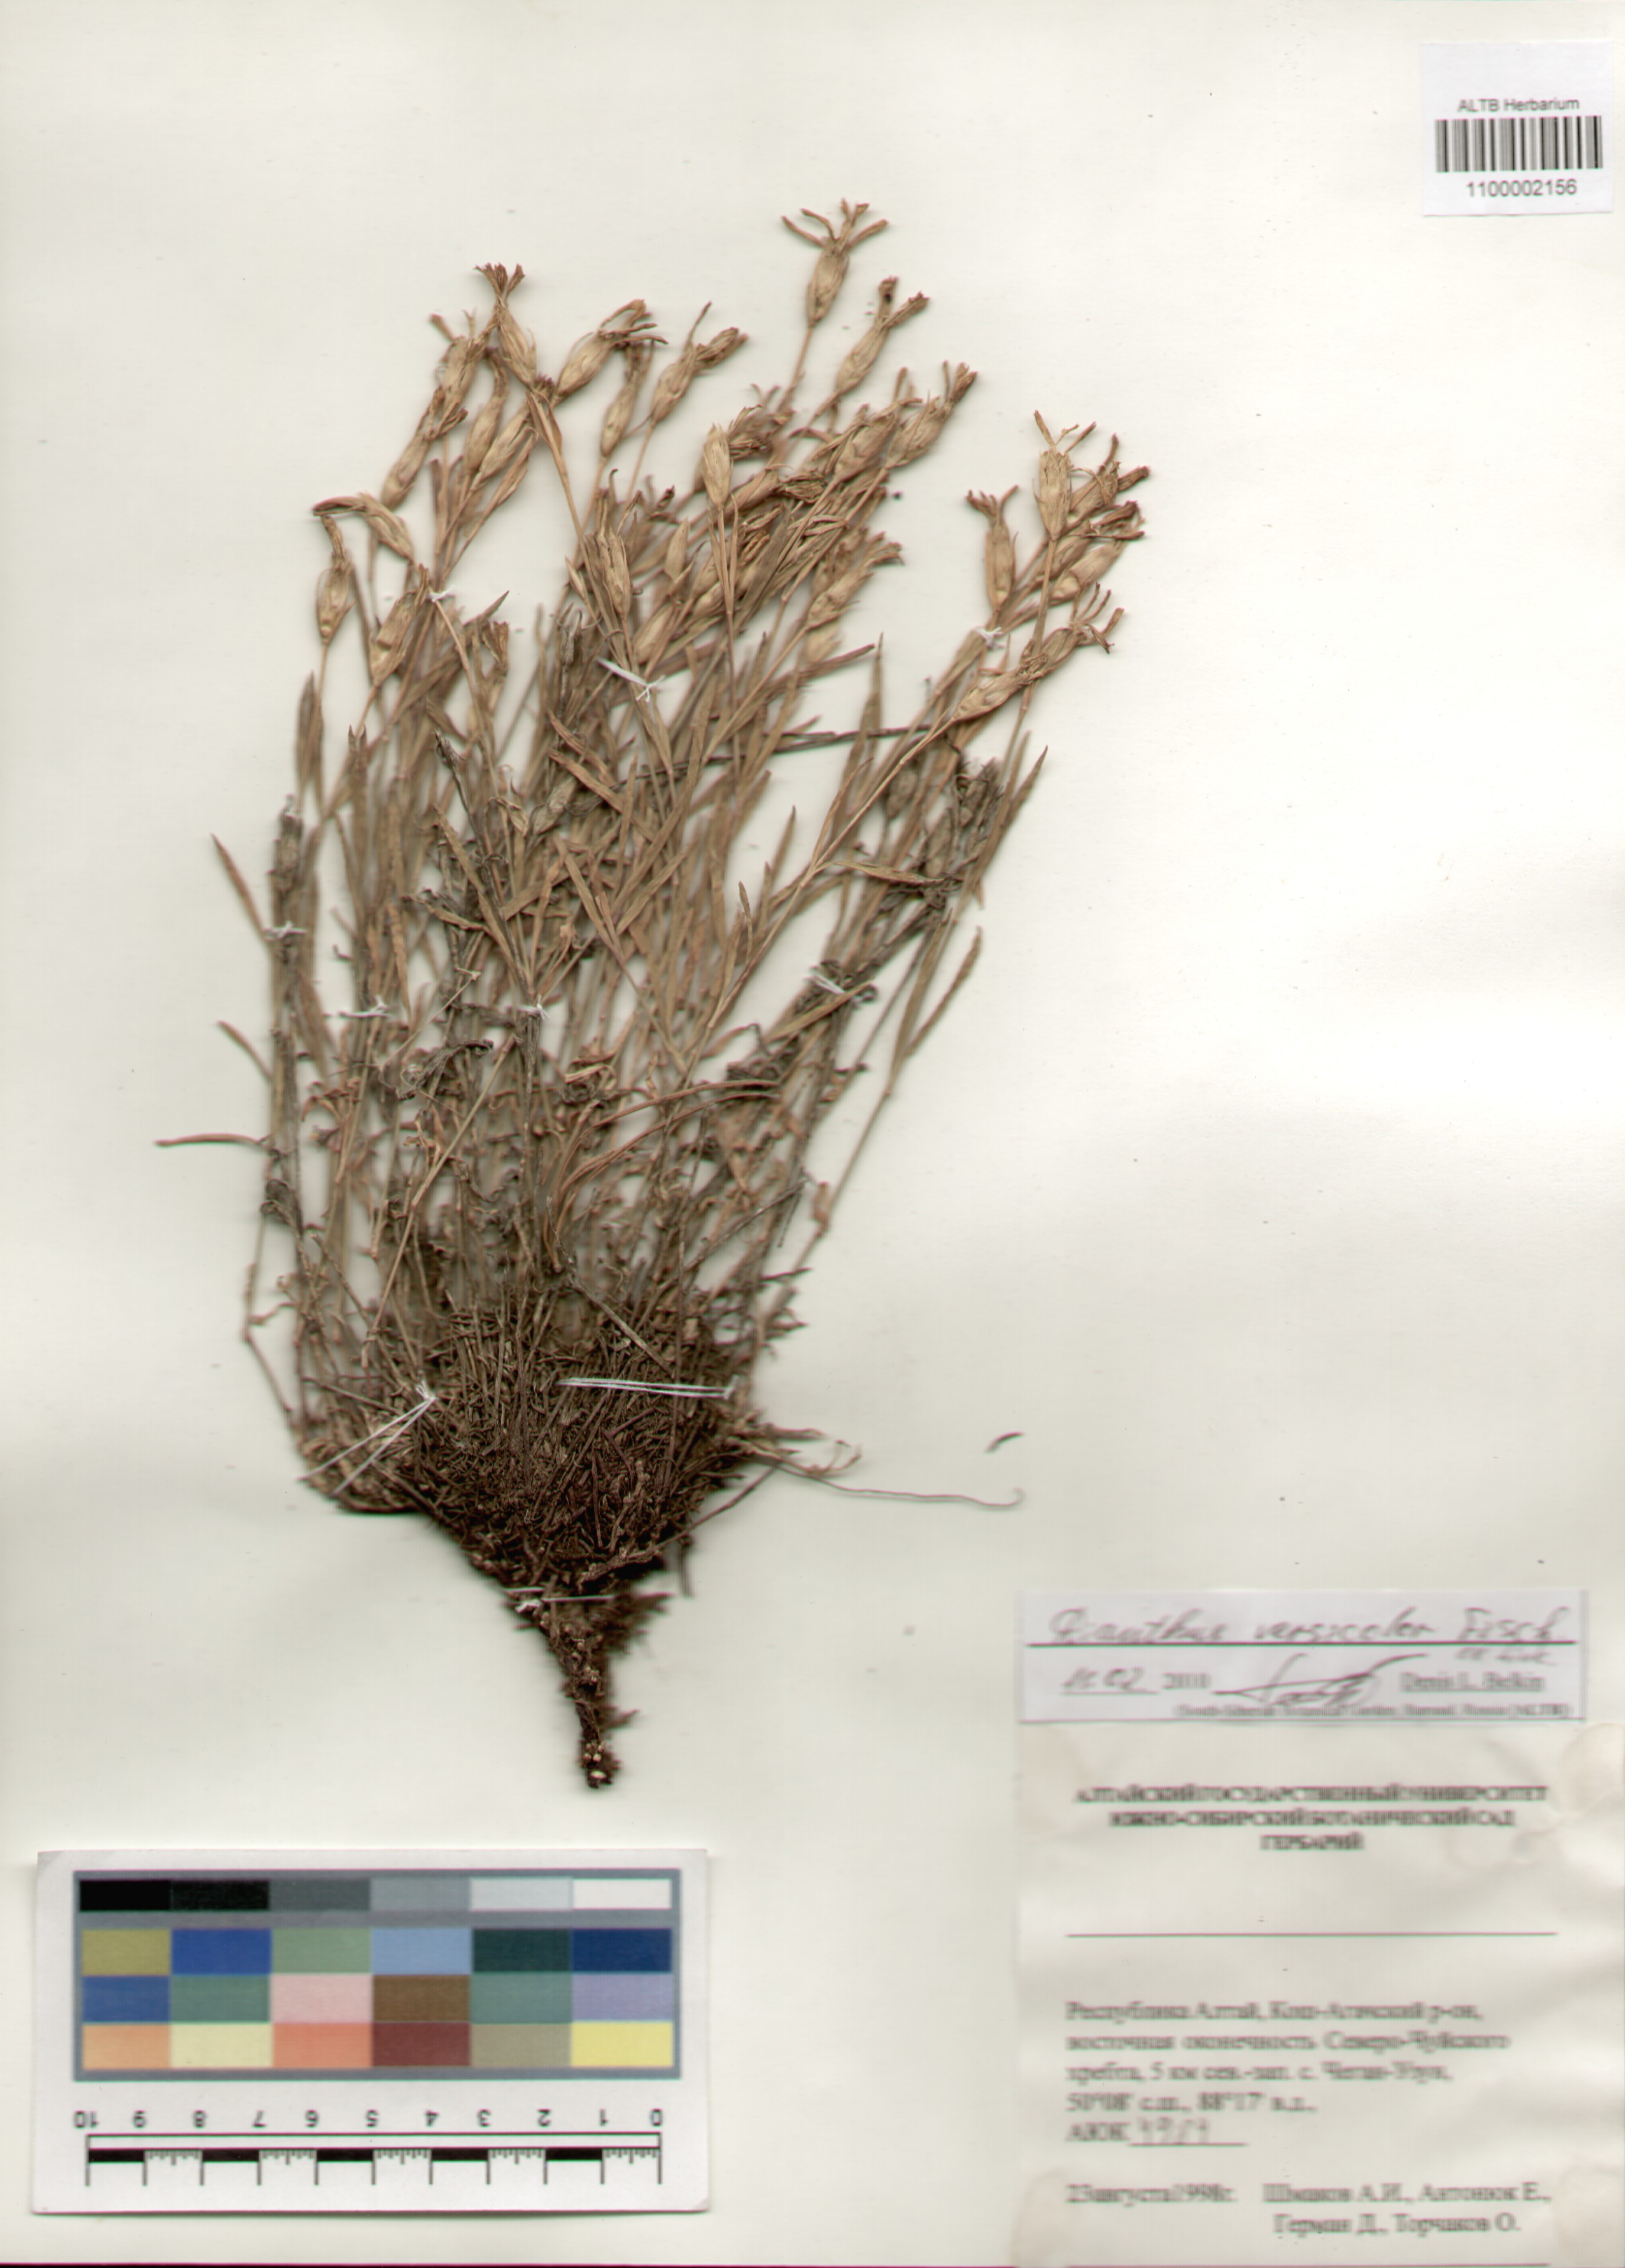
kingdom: Plantae
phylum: Tracheophyta
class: Magnoliopsida
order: Caryophyllales
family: Caryophyllaceae
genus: Dianthus
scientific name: Dianthus chinensis
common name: Rainbow pink
